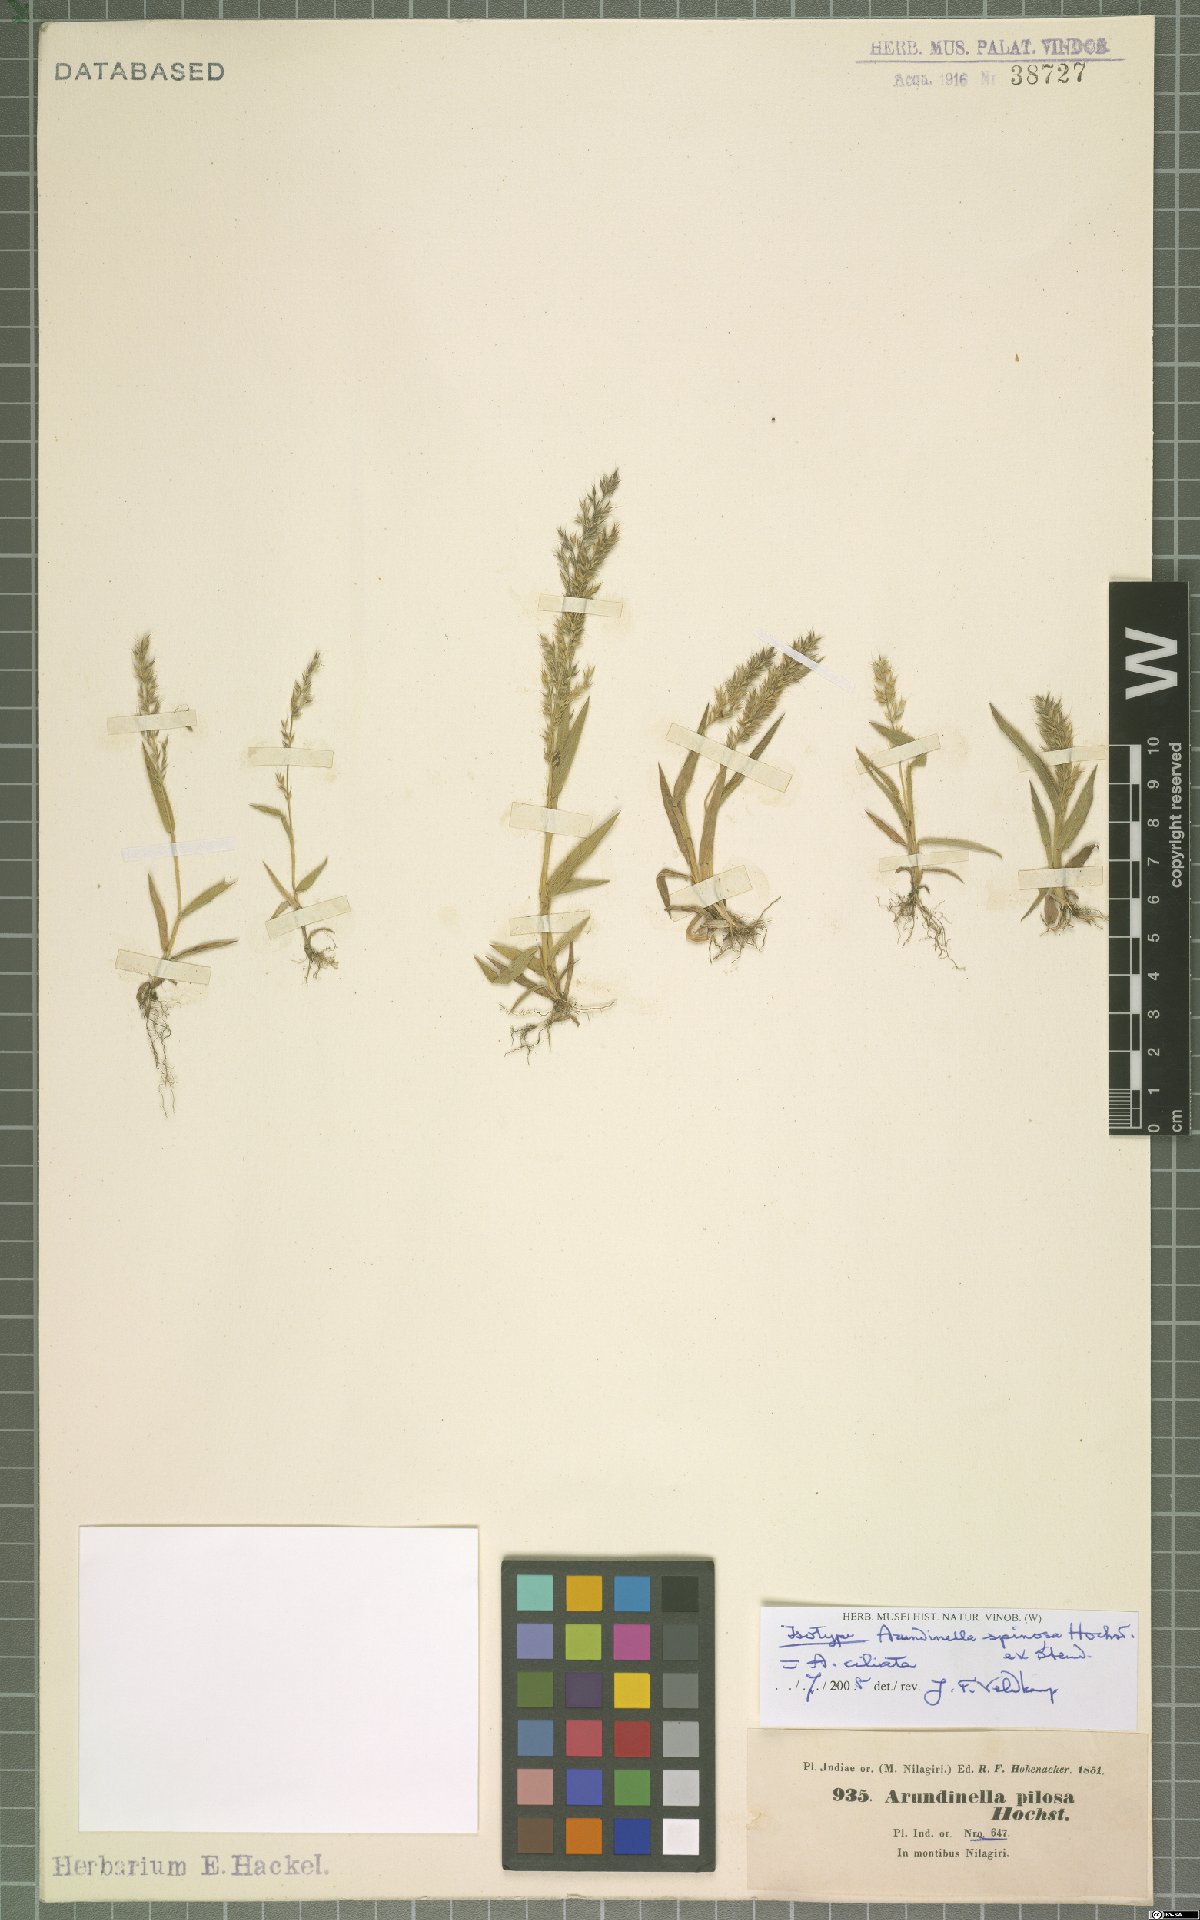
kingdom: Plantae
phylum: Tracheophyta
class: Liliopsida
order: Poales
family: Poaceae
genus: Arundinella
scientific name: Arundinella ciliata
